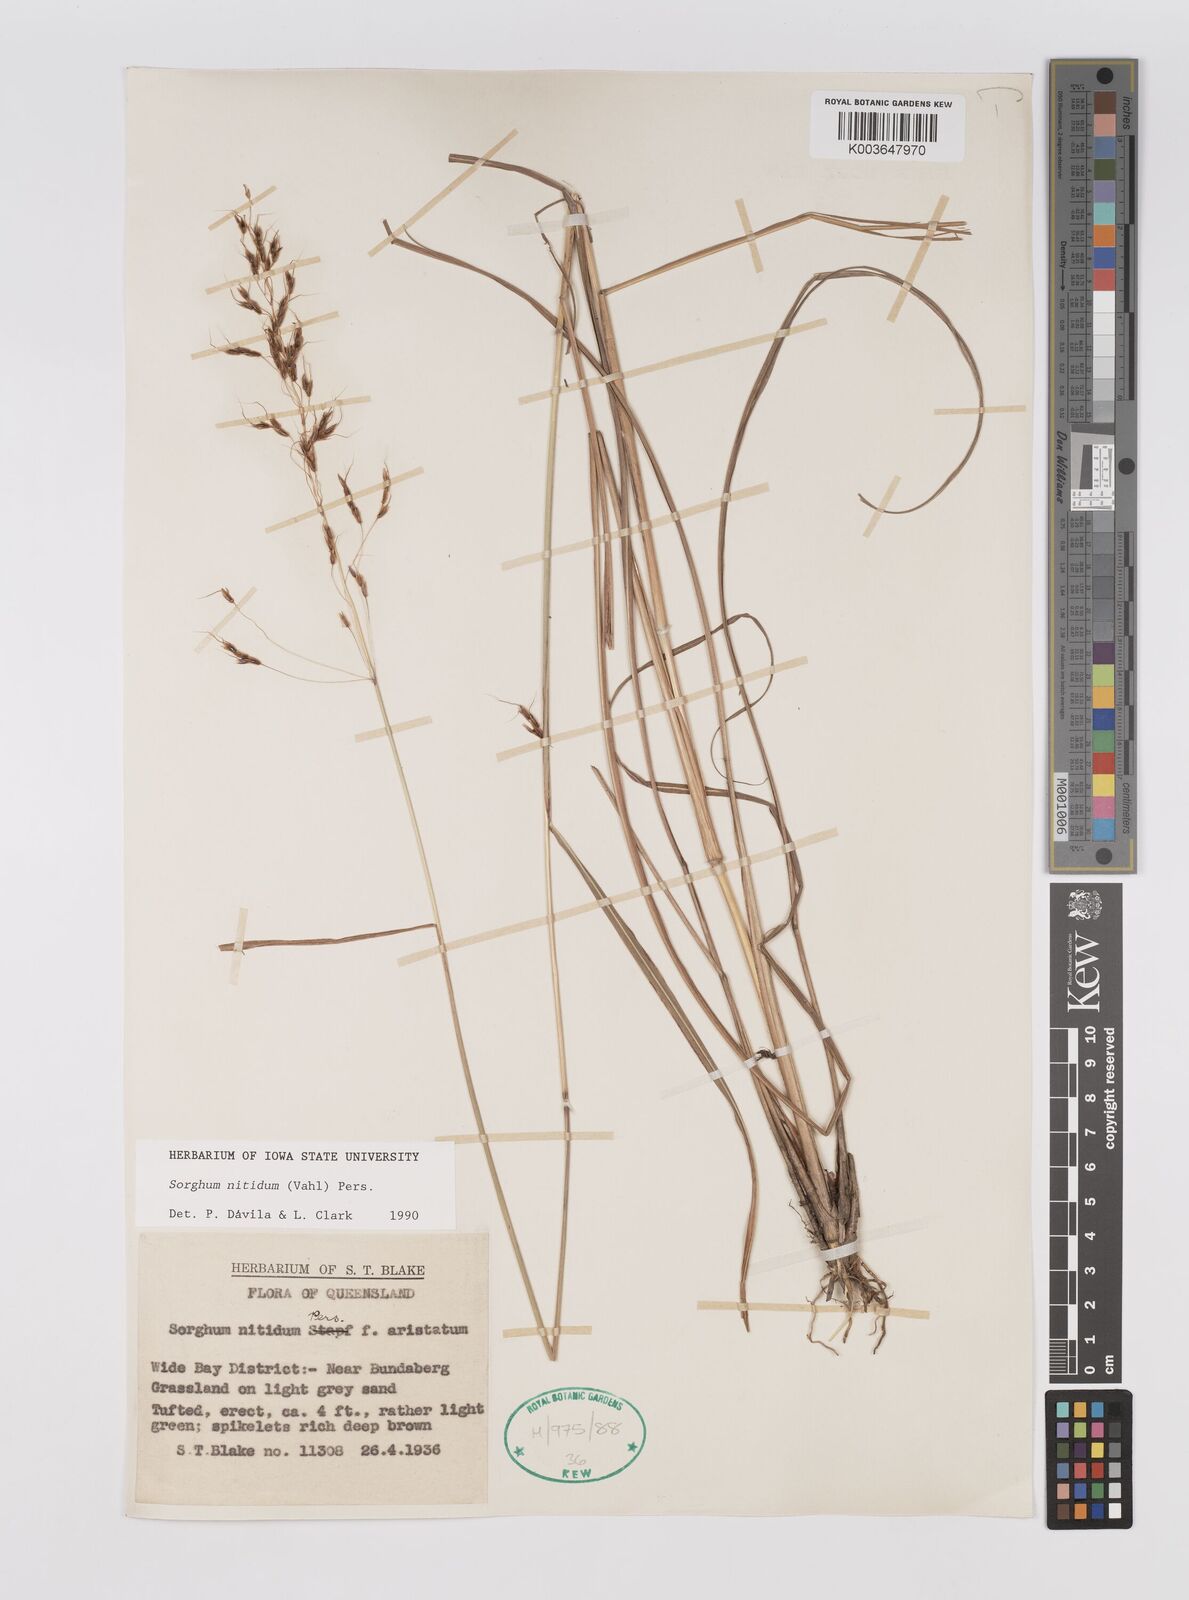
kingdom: Plantae
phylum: Tracheophyta
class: Liliopsida
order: Poales
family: Poaceae
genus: Sorghum
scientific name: Sorghum nitidum
